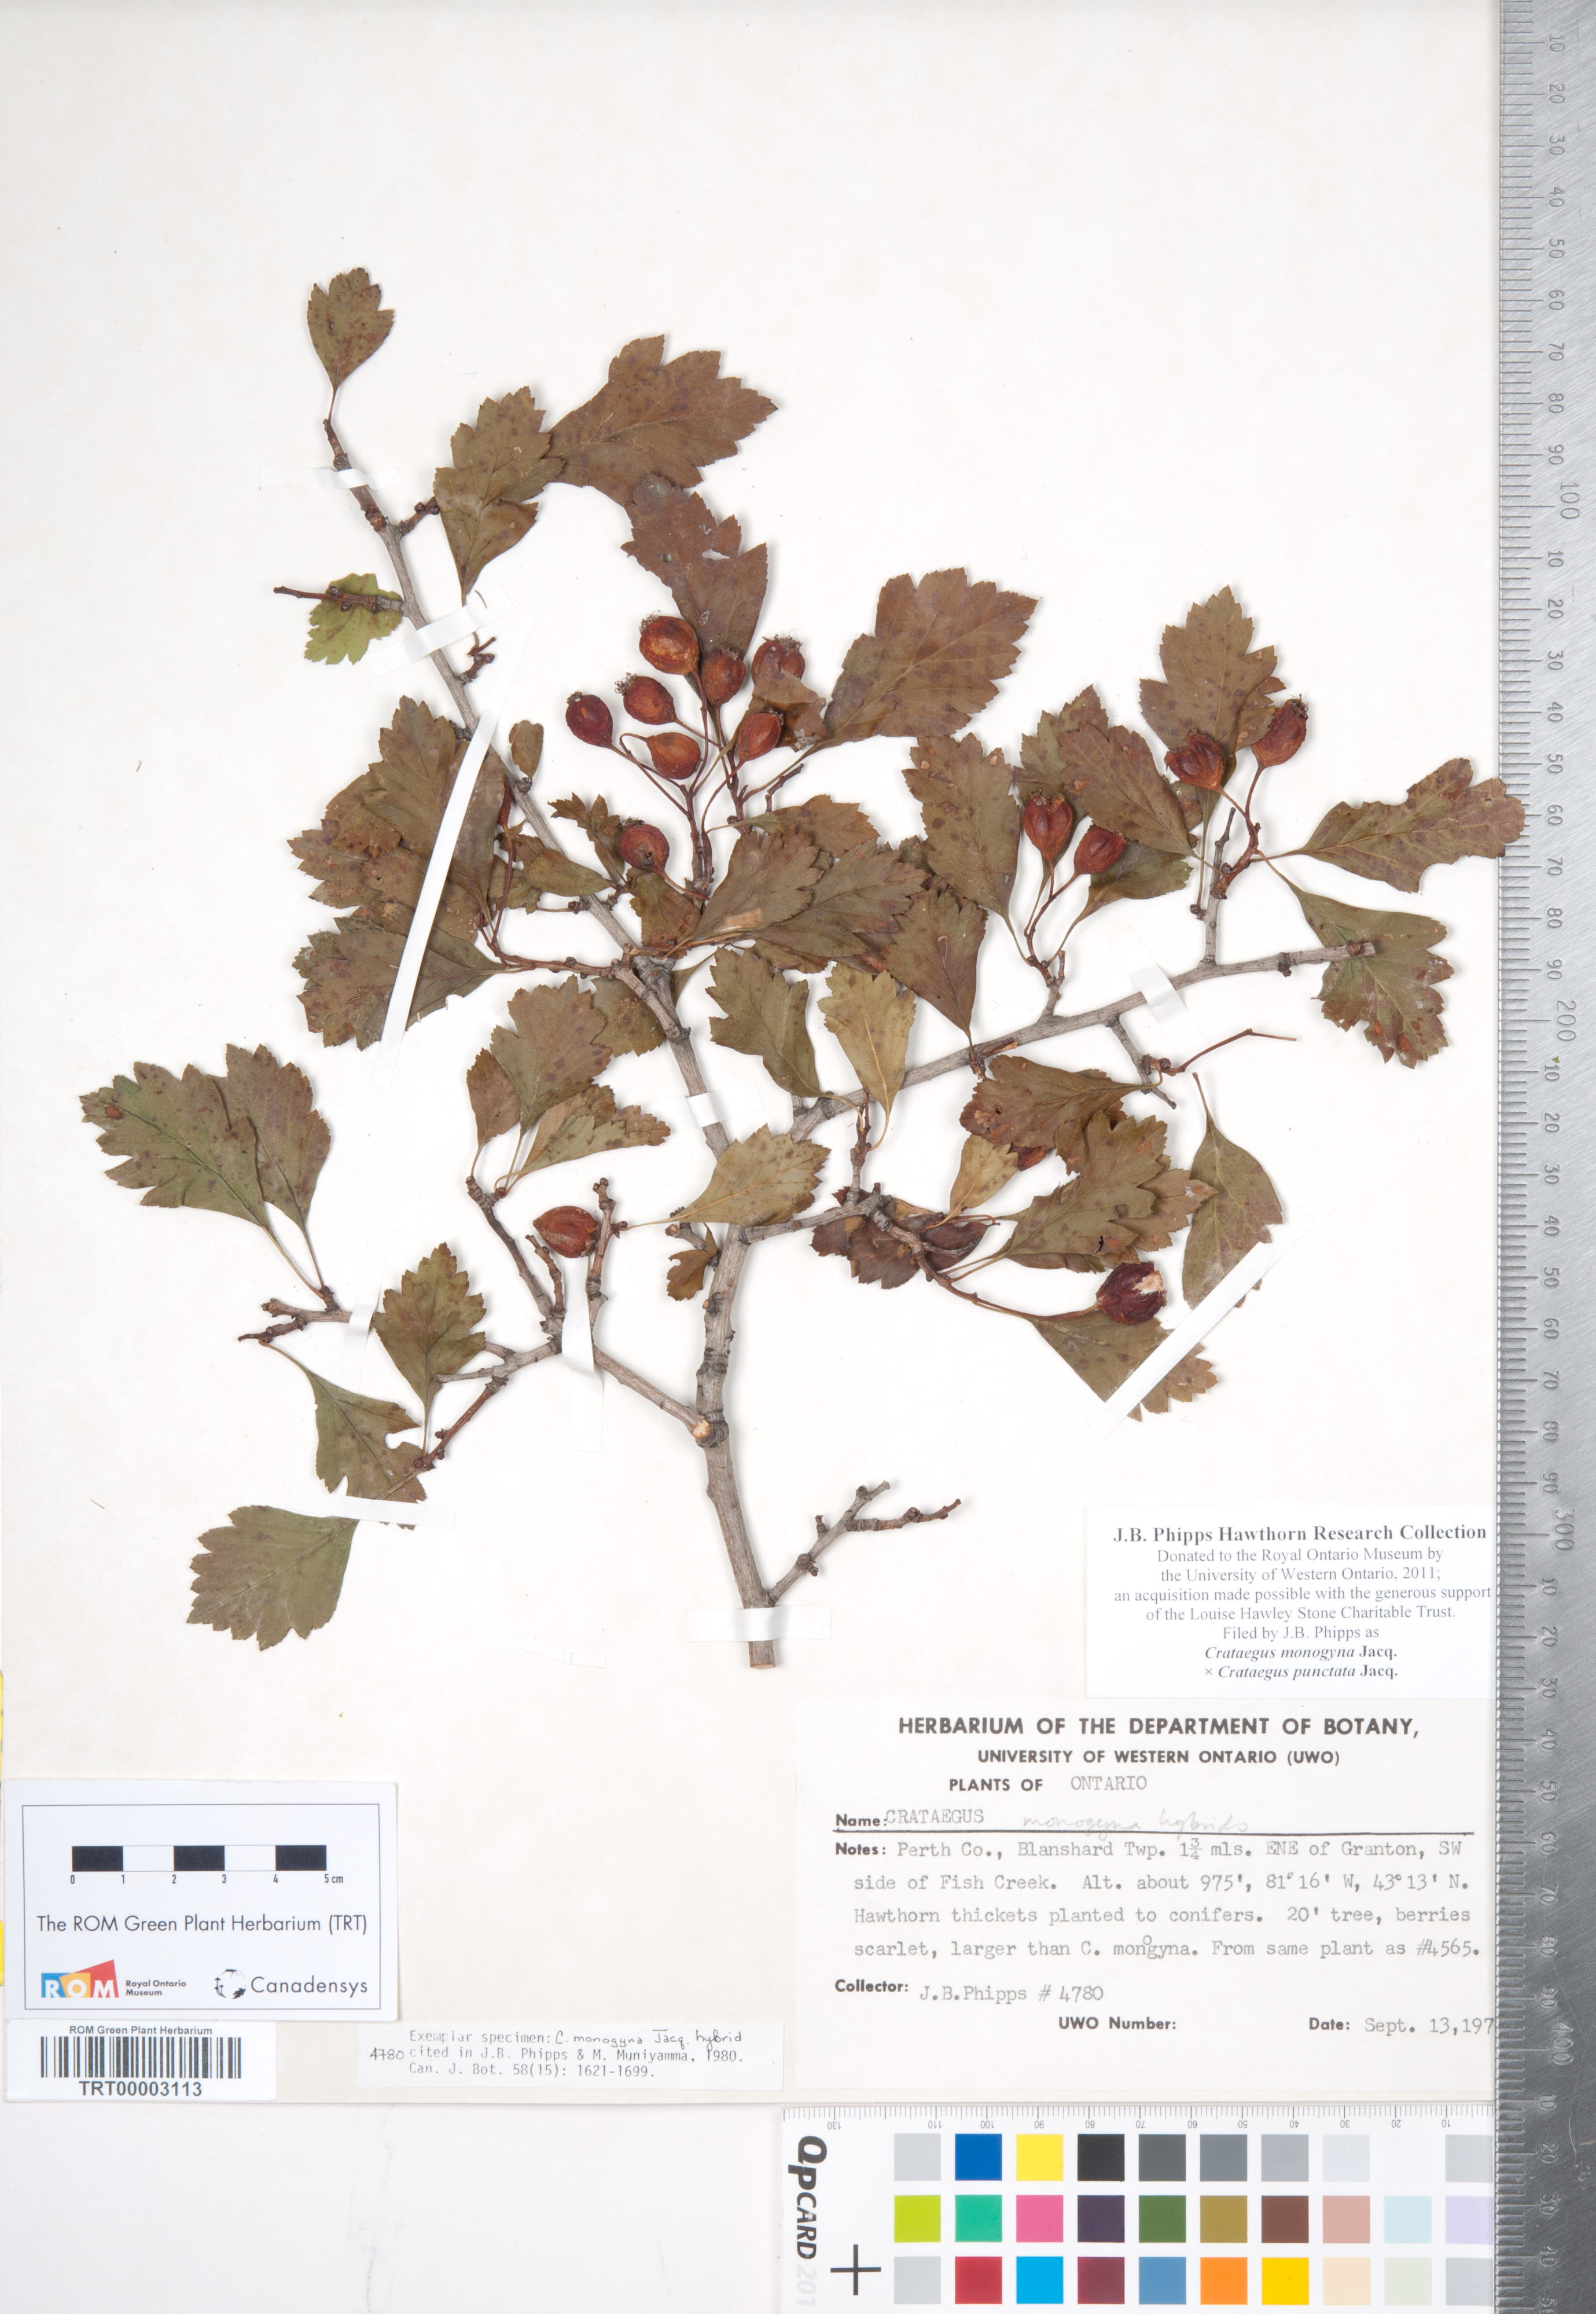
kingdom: Plantae
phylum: Tracheophyta
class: Magnoliopsida
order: Rosales
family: Rosaceae
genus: Crataegus
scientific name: Crataegus monogyna
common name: Hawthorn
